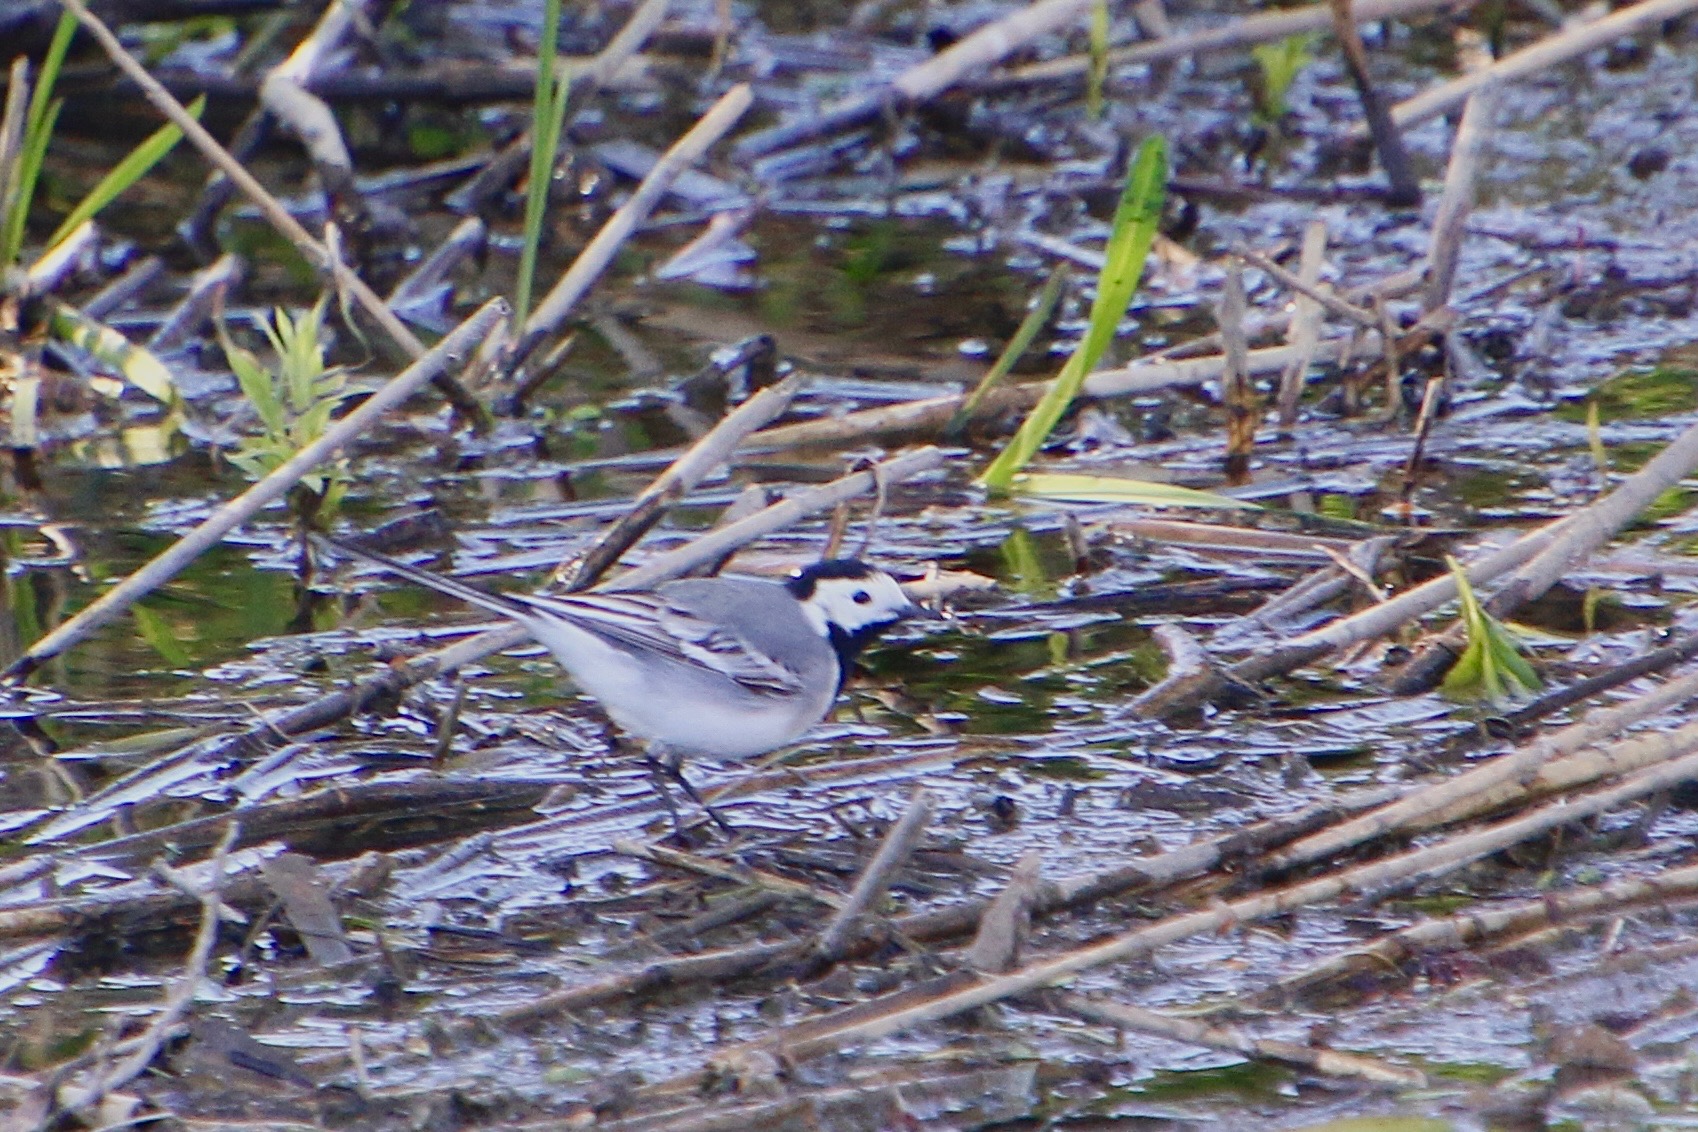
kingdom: Animalia
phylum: Chordata
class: Aves
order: Passeriformes
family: Motacillidae
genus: Motacilla
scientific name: Motacilla alba
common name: Hvid vipstjert
